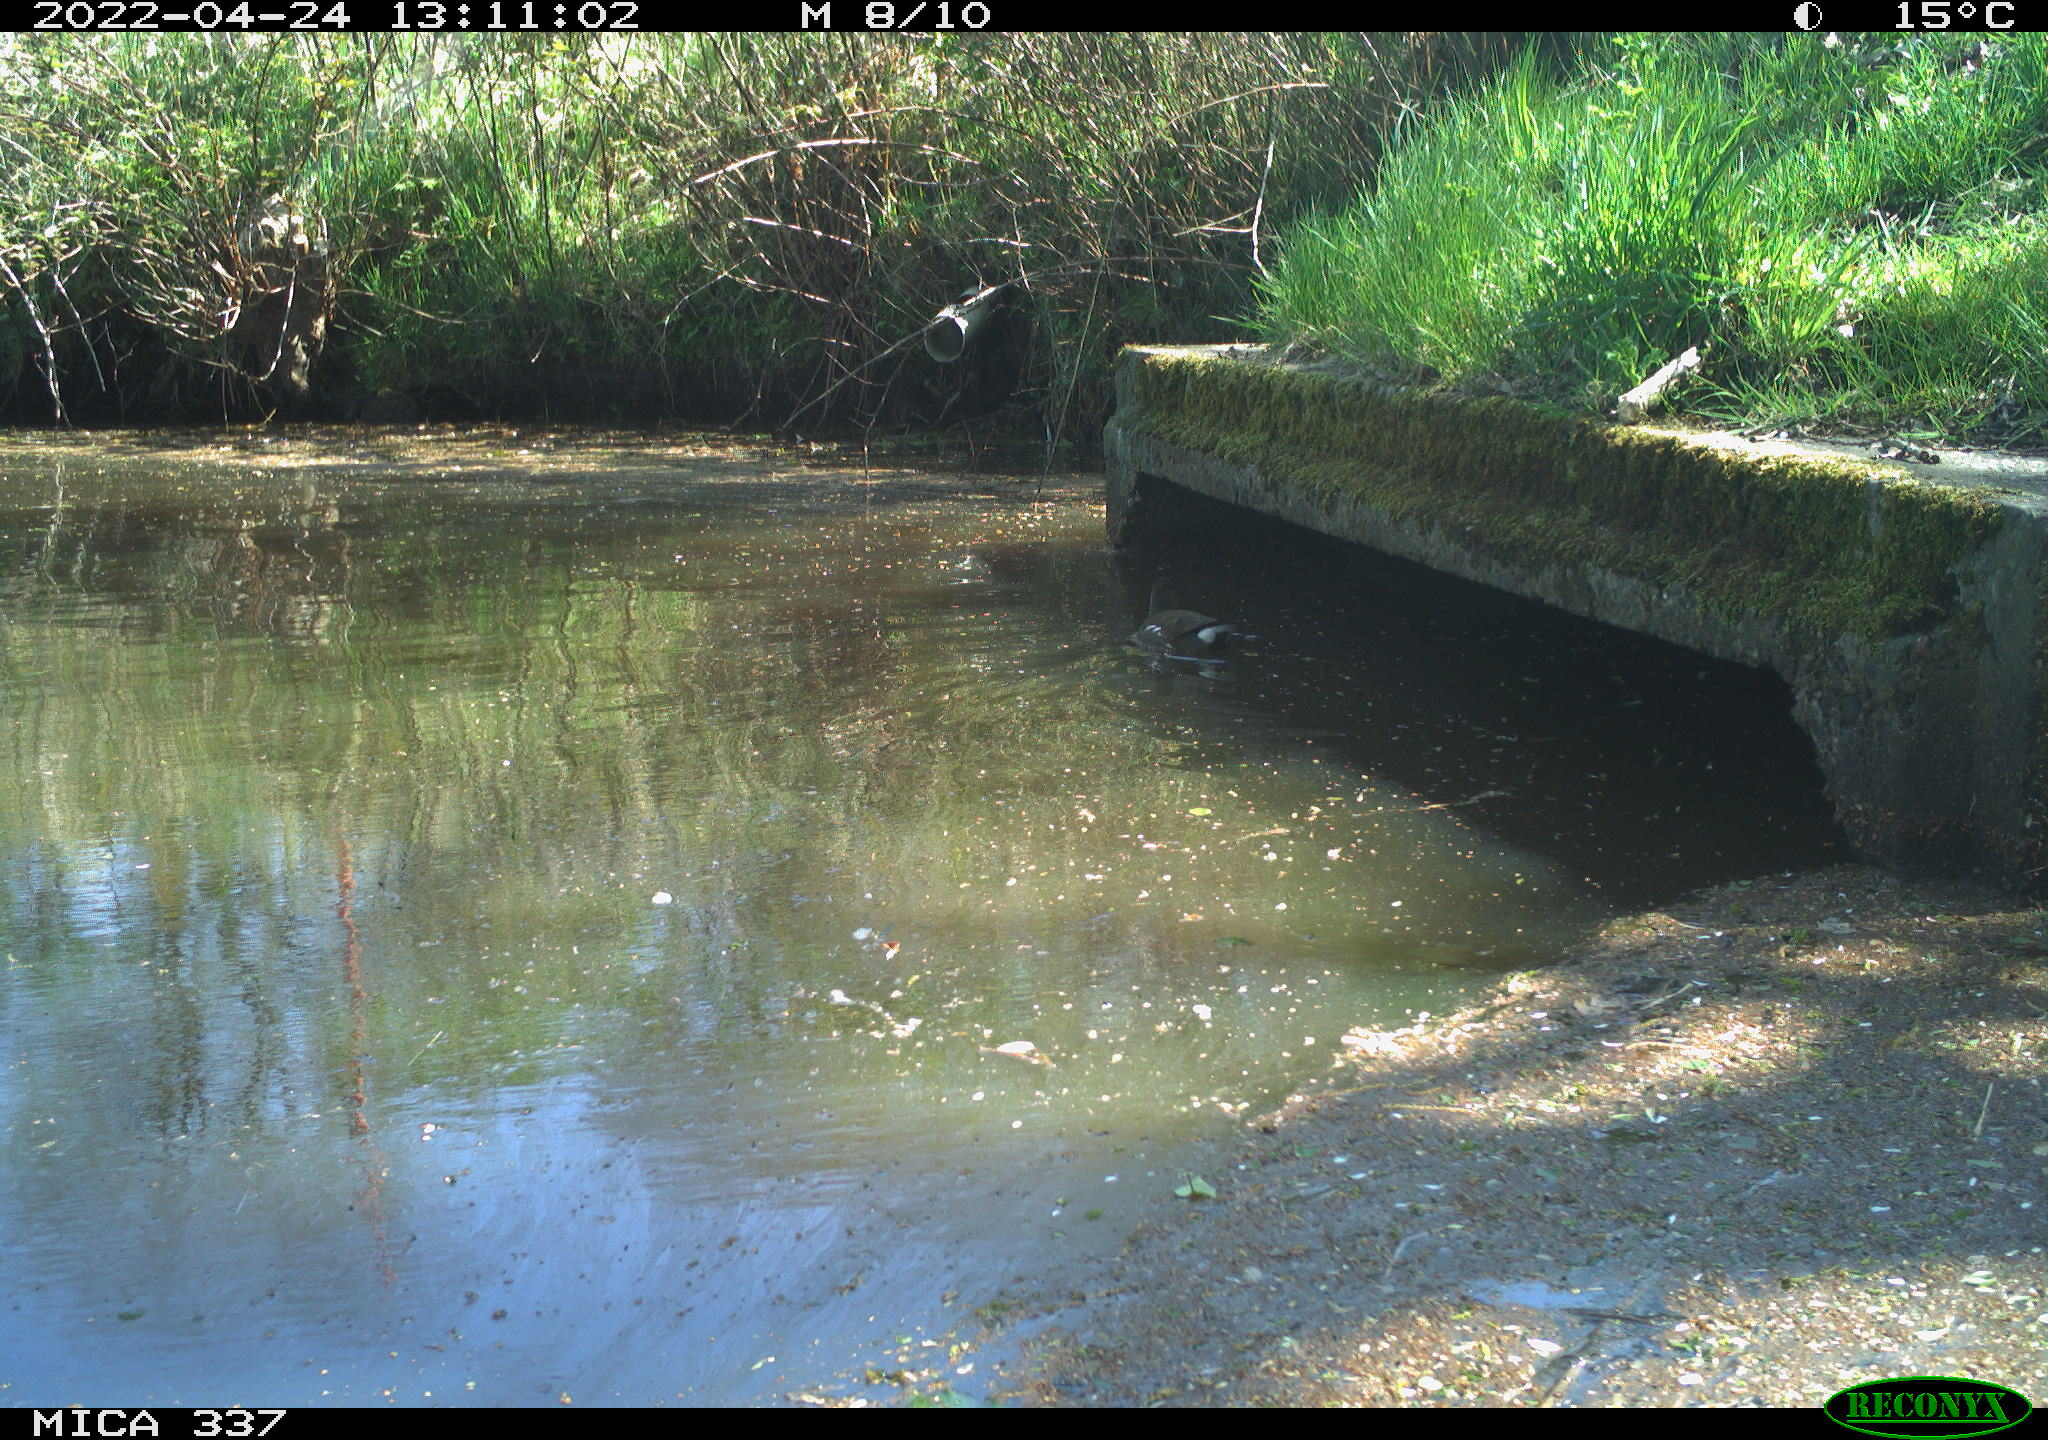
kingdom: Animalia
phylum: Chordata
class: Aves
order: Gruiformes
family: Rallidae
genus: Gallinula
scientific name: Gallinula chloropus
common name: Common moorhen
